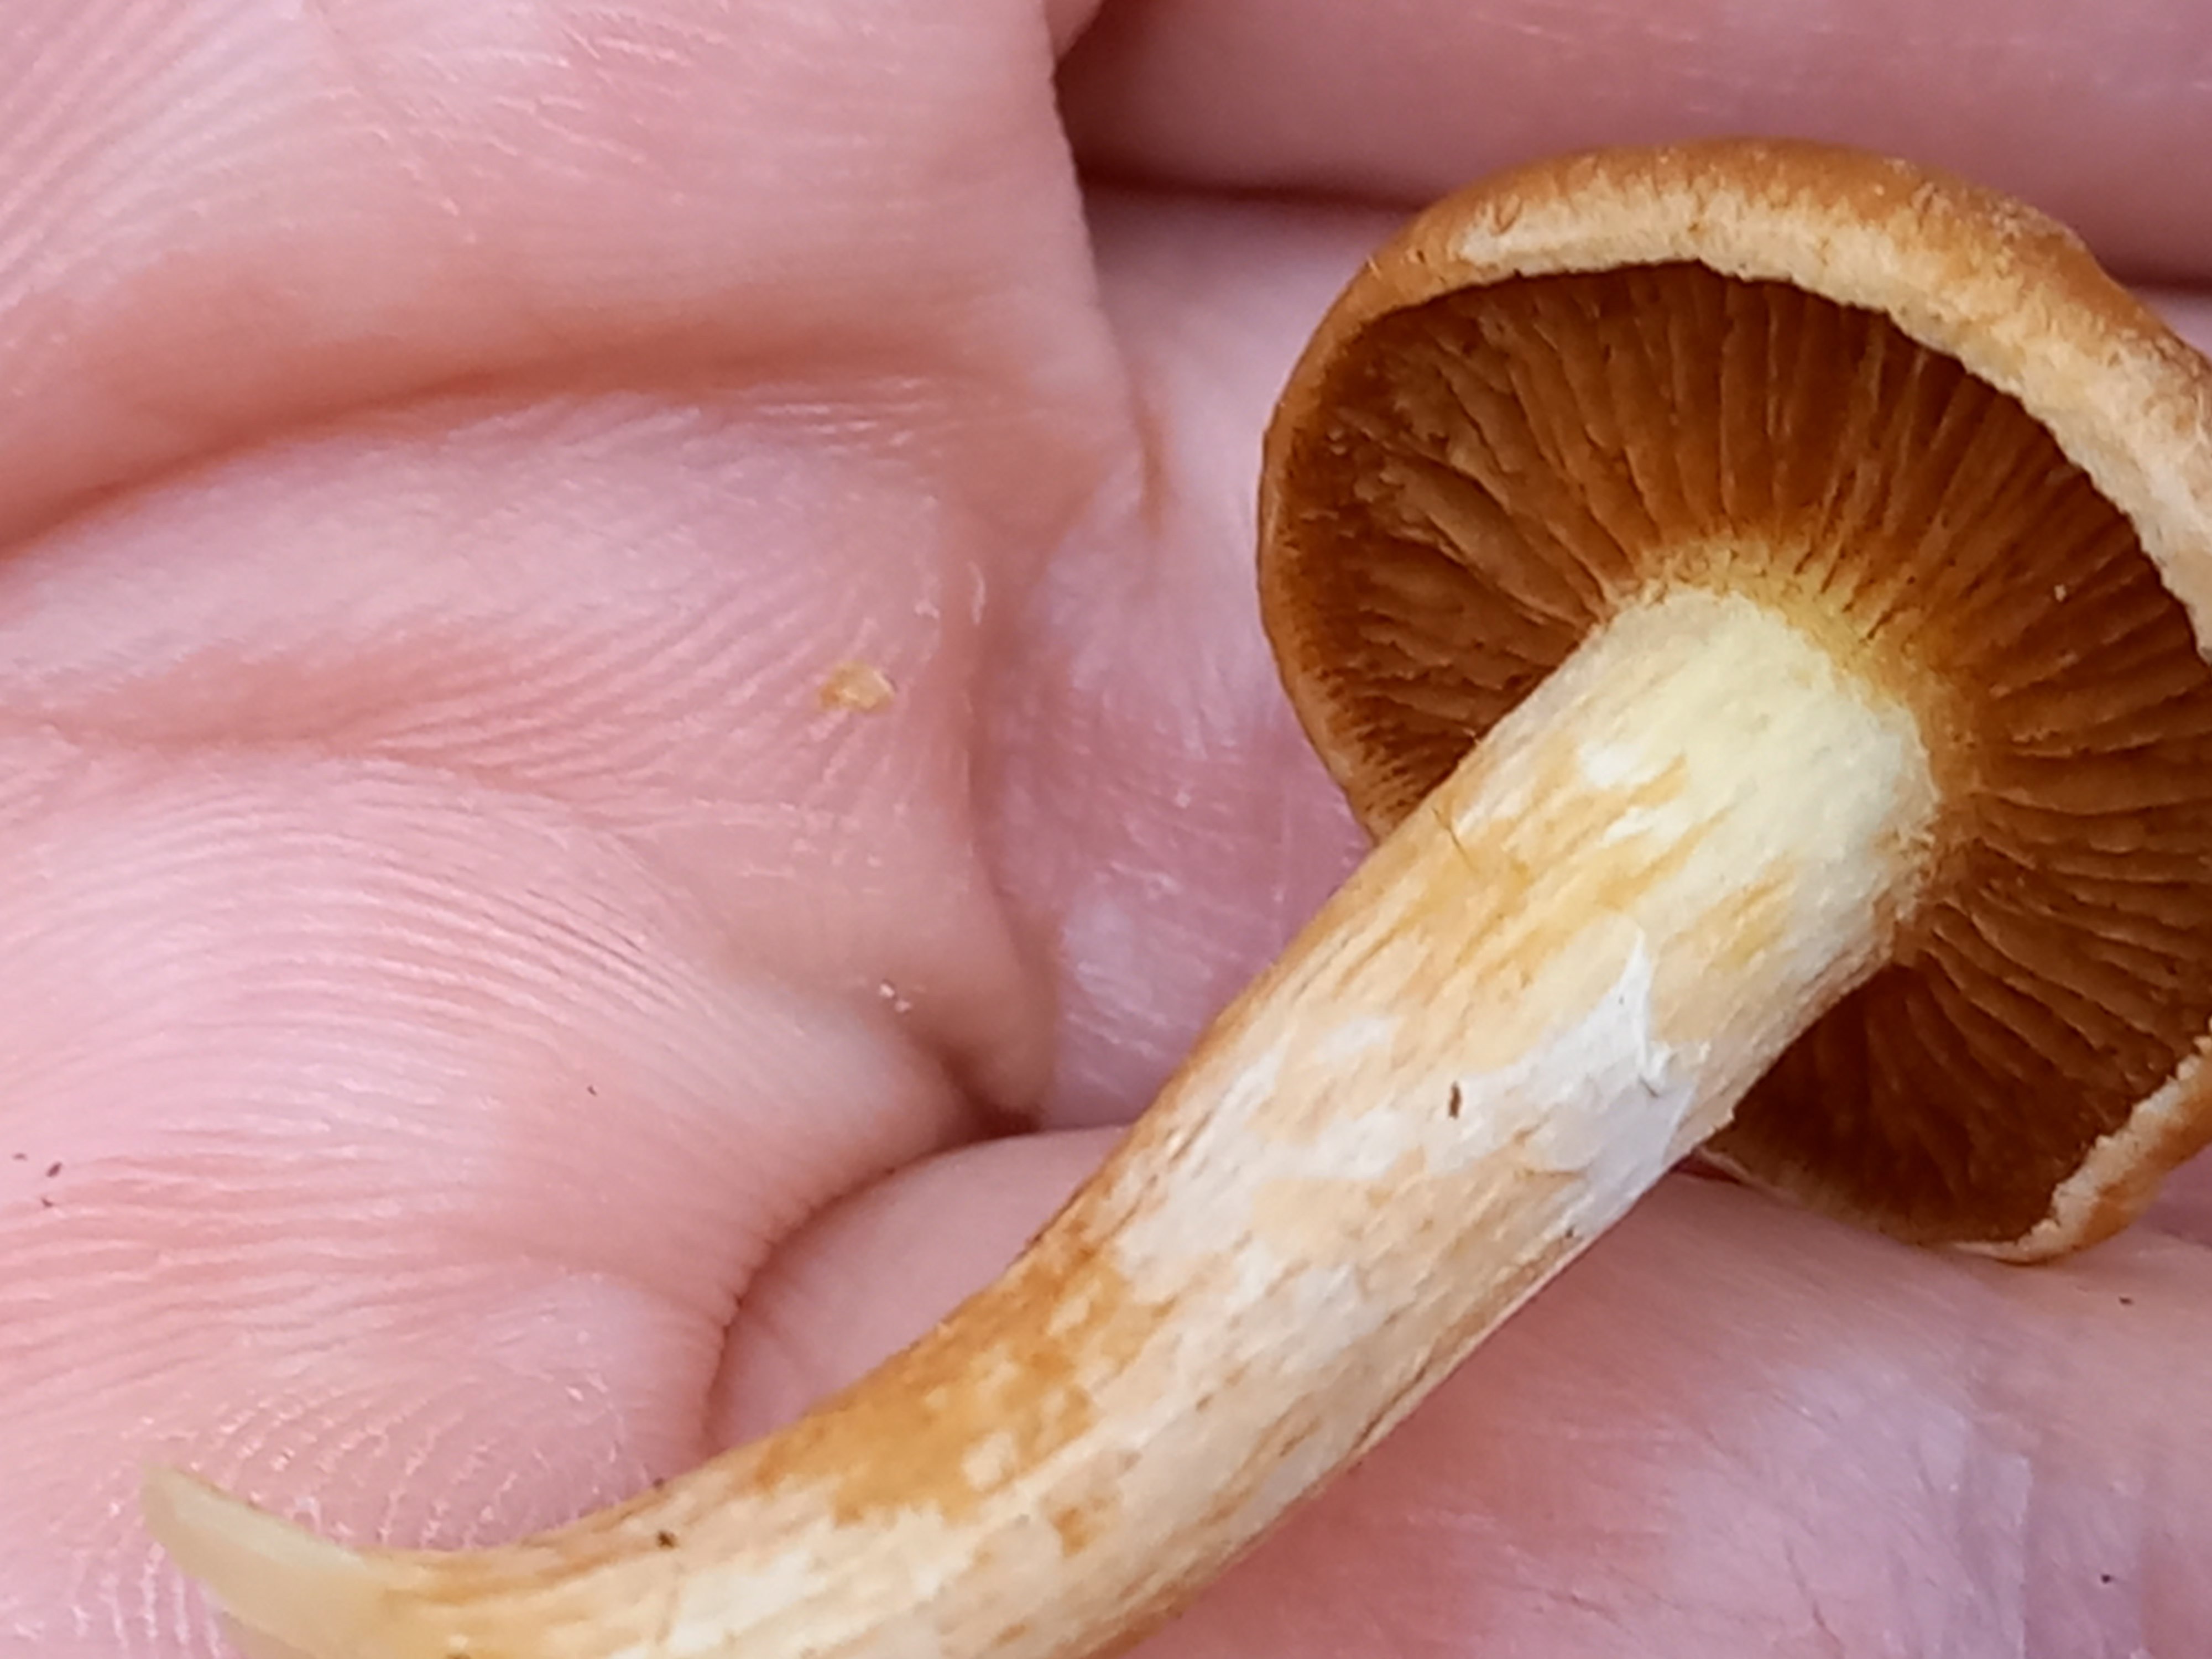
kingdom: Fungi
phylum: Basidiomycota
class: Agaricomycetes
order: Agaricales
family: Hymenogastraceae
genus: Gymnopilus
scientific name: Gymnopilus penetrans
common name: plettet flammehat
